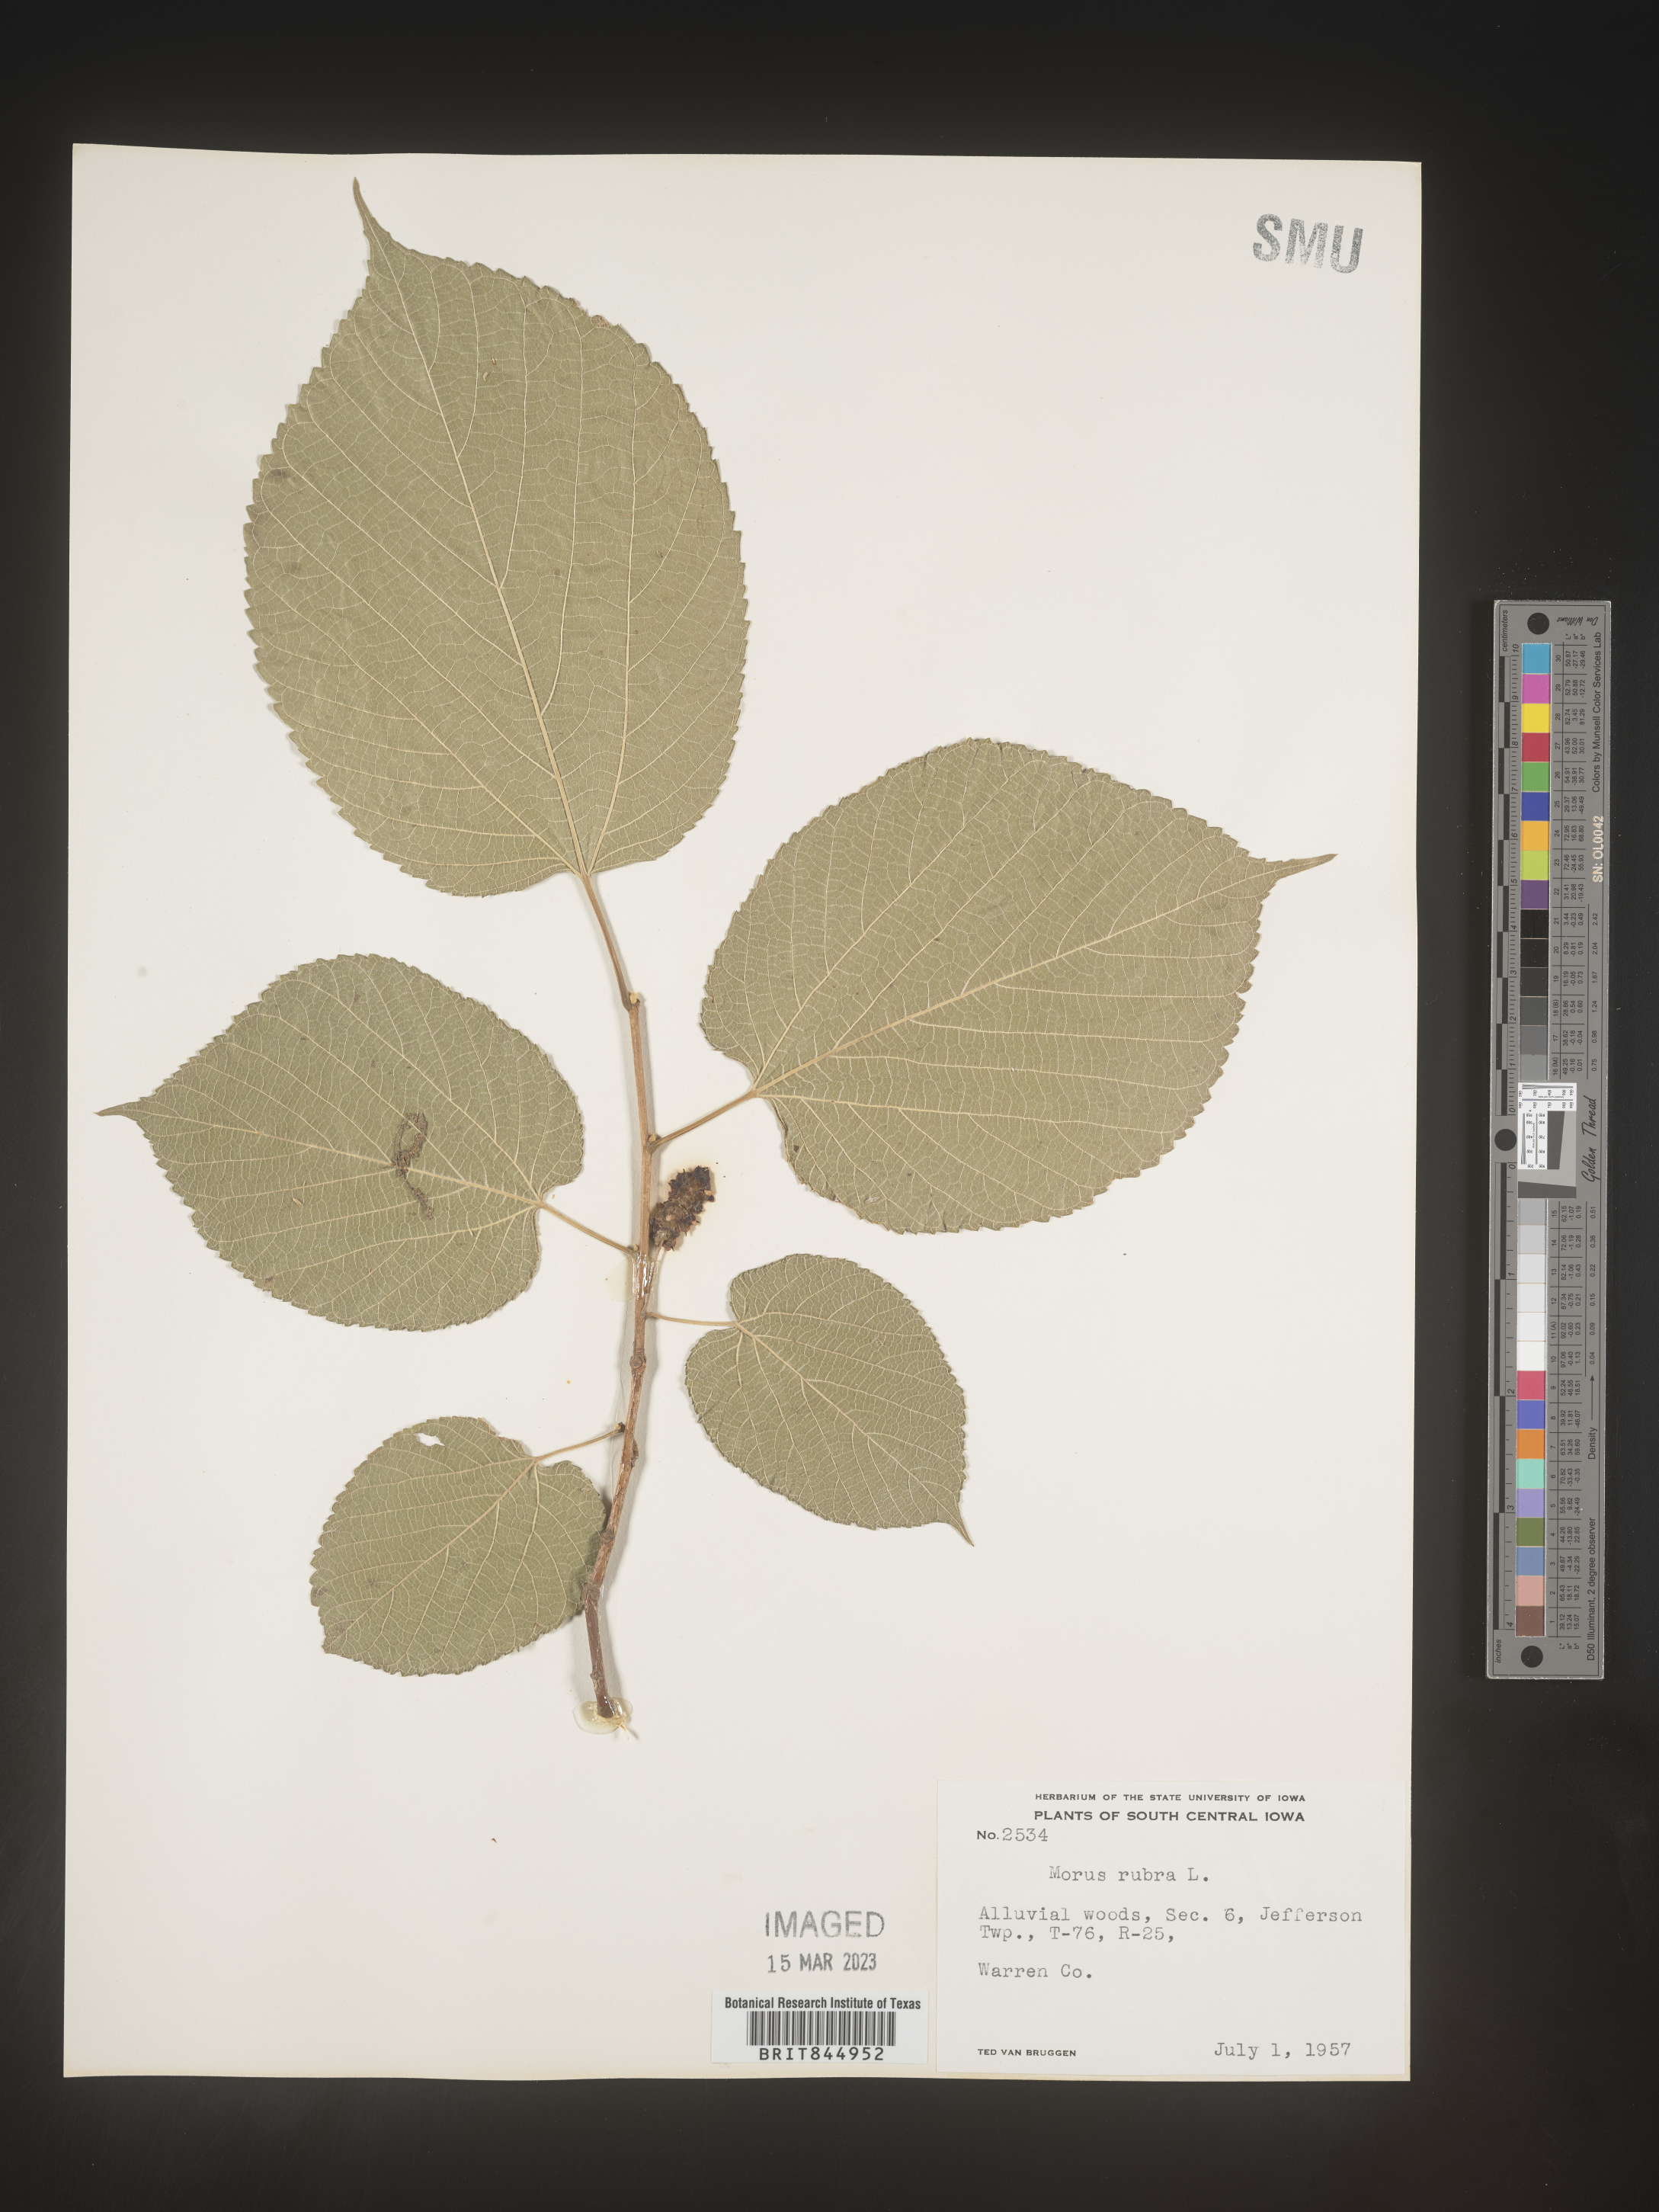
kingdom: Plantae
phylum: Tracheophyta
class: Magnoliopsida
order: Rosales
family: Moraceae
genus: Morus
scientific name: Morus rubra
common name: Red mulberry
